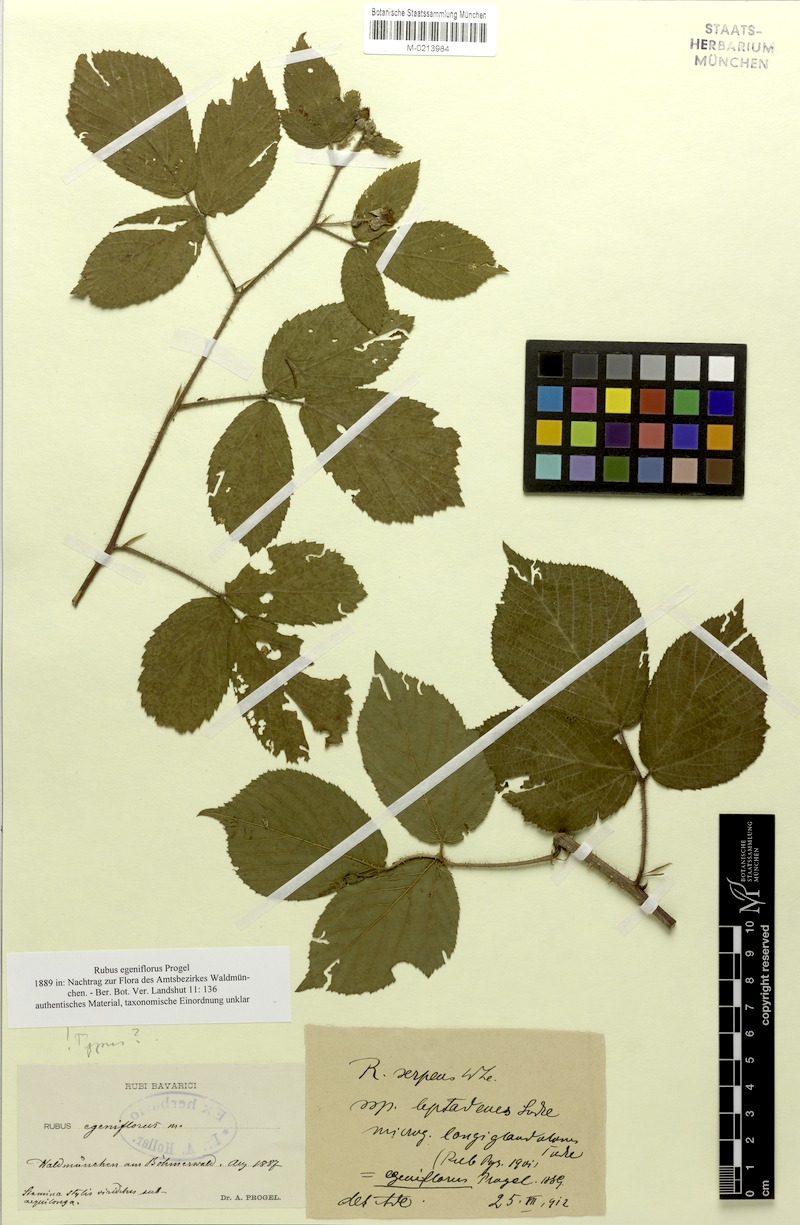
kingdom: Plantae
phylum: Tracheophyta
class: Magnoliopsida
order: Rosales
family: Rosaceae
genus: Rubus
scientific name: Rubus decurtatus
